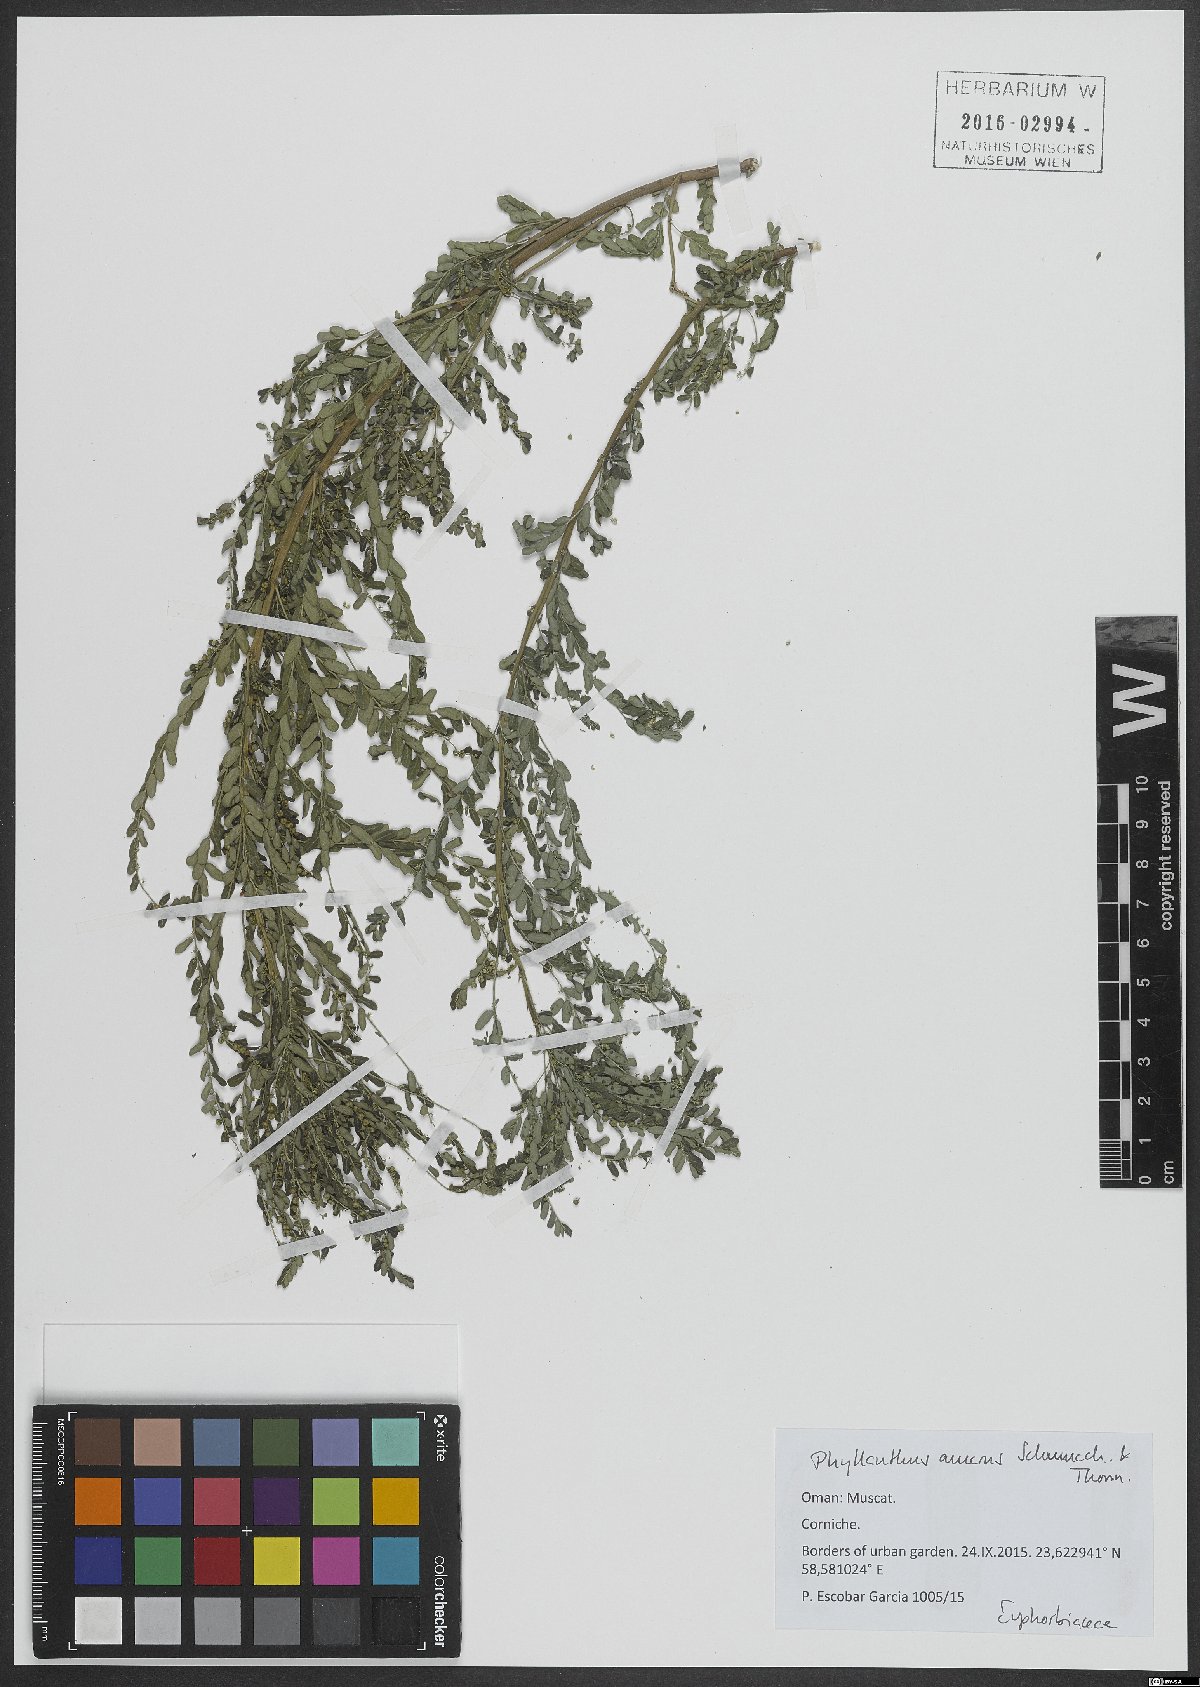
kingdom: Plantae
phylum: Tracheophyta
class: Magnoliopsida
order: Malpighiales
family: Phyllanthaceae
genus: Phyllanthus
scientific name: Phyllanthus amarus
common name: Carry me seed
